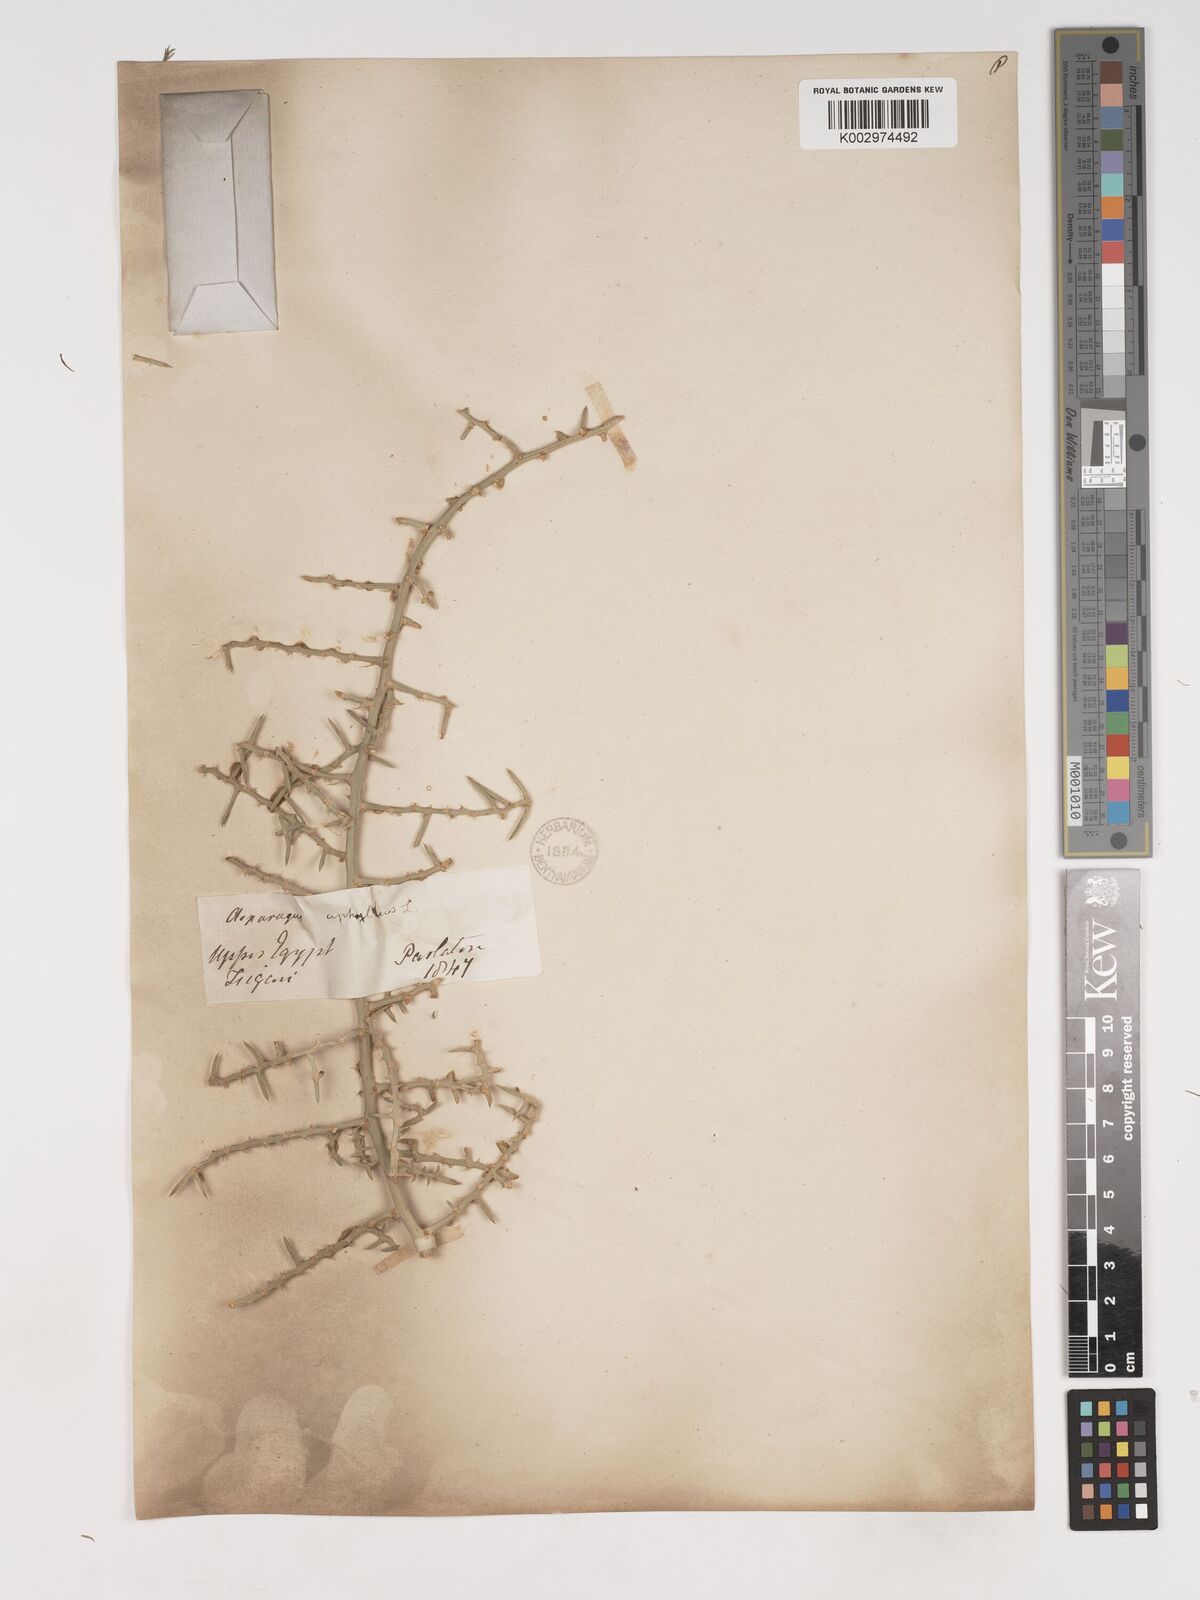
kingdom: Plantae
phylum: Tracheophyta
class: Liliopsida
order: Asparagales
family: Asparagaceae
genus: Asparagus
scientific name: Asparagus aphyllus
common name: Mediterranean asparagus
